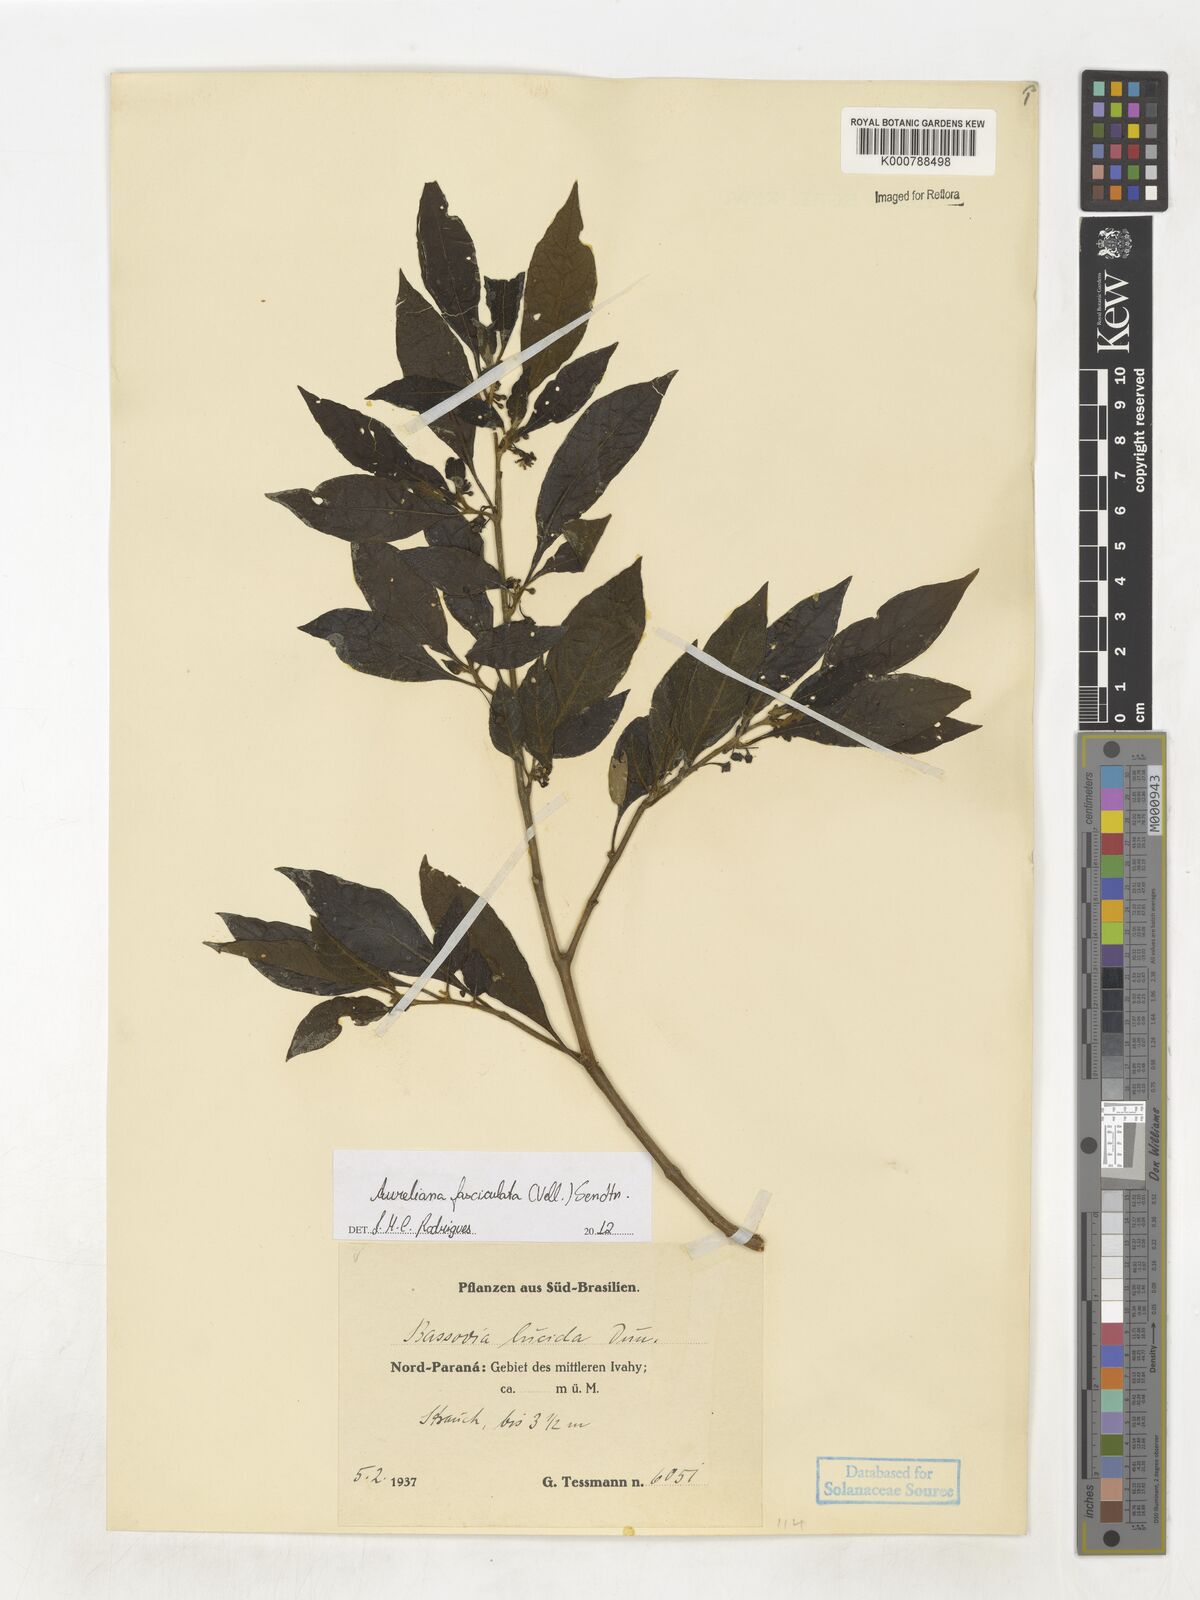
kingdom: Plantae
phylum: Tracheophyta
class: Magnoliopsida
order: Solanales
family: Solanaceae
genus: Athenaea
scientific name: Athenaea fasciculata
